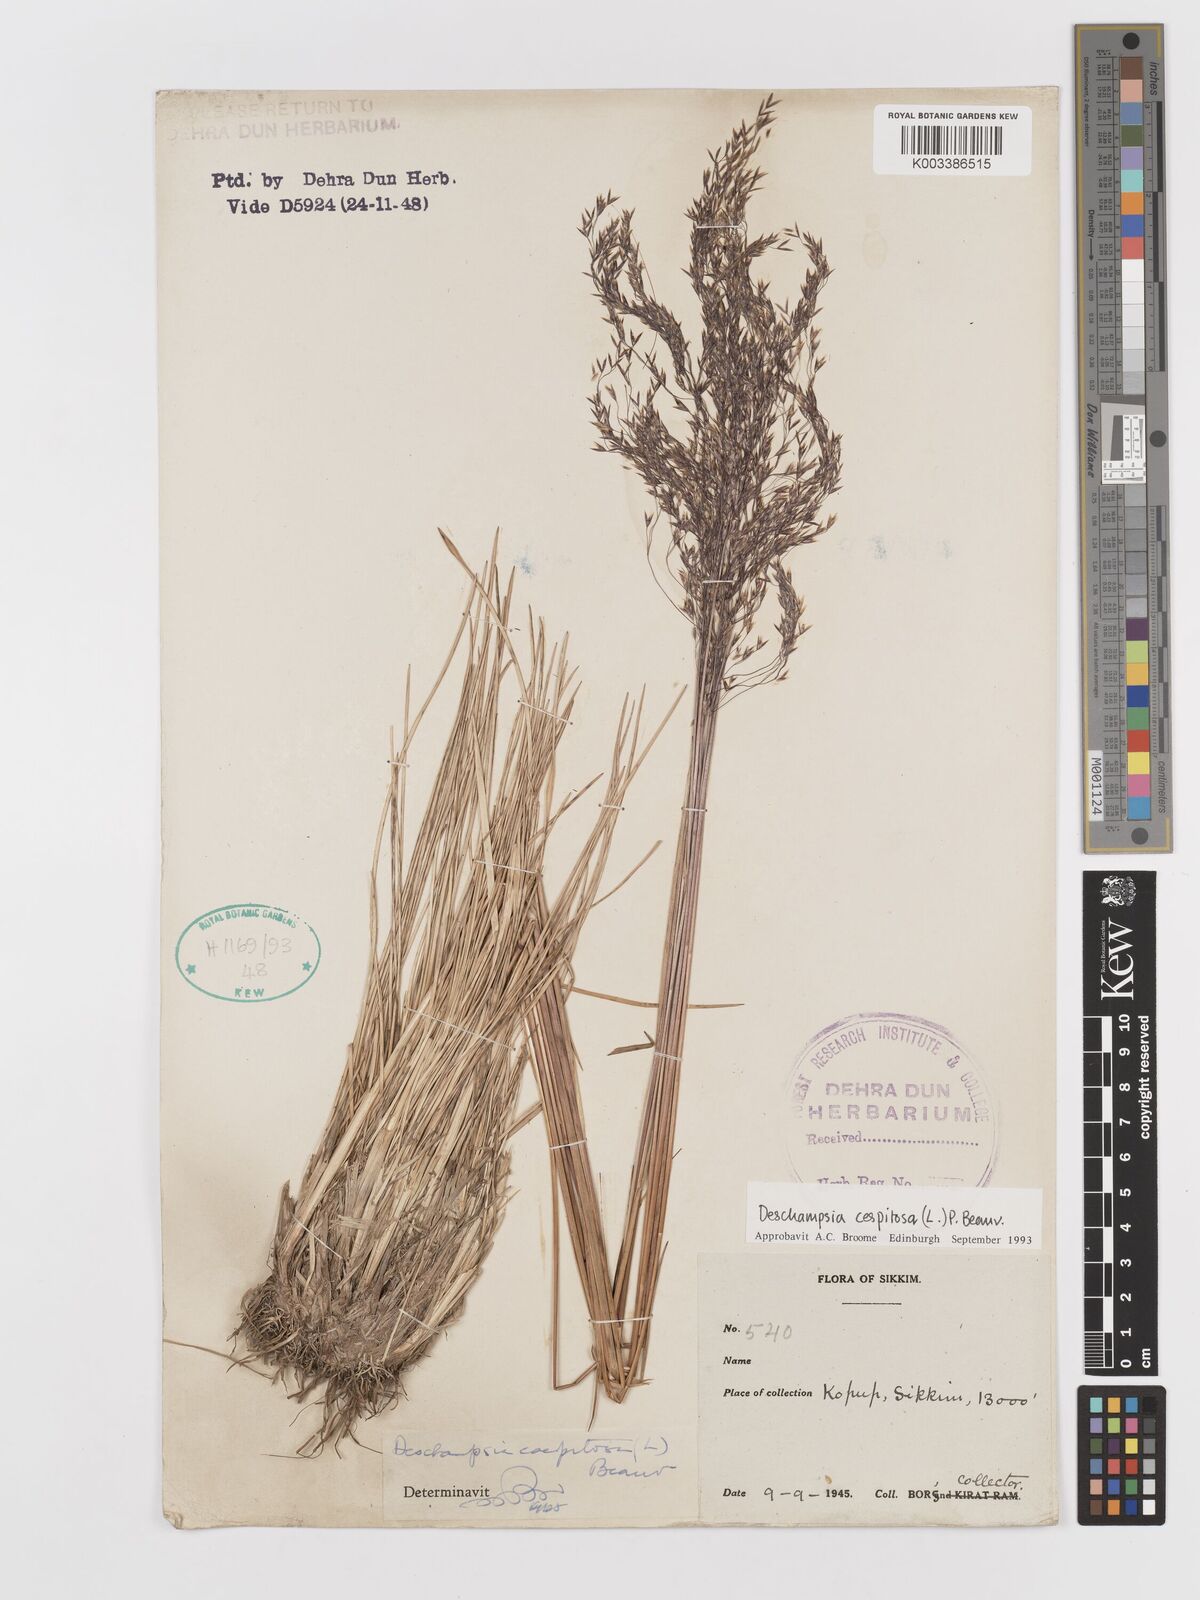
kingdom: Plantae
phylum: Tracheophyta
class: Liliopsida
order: Poales
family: Poaceae
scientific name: Poaceae
